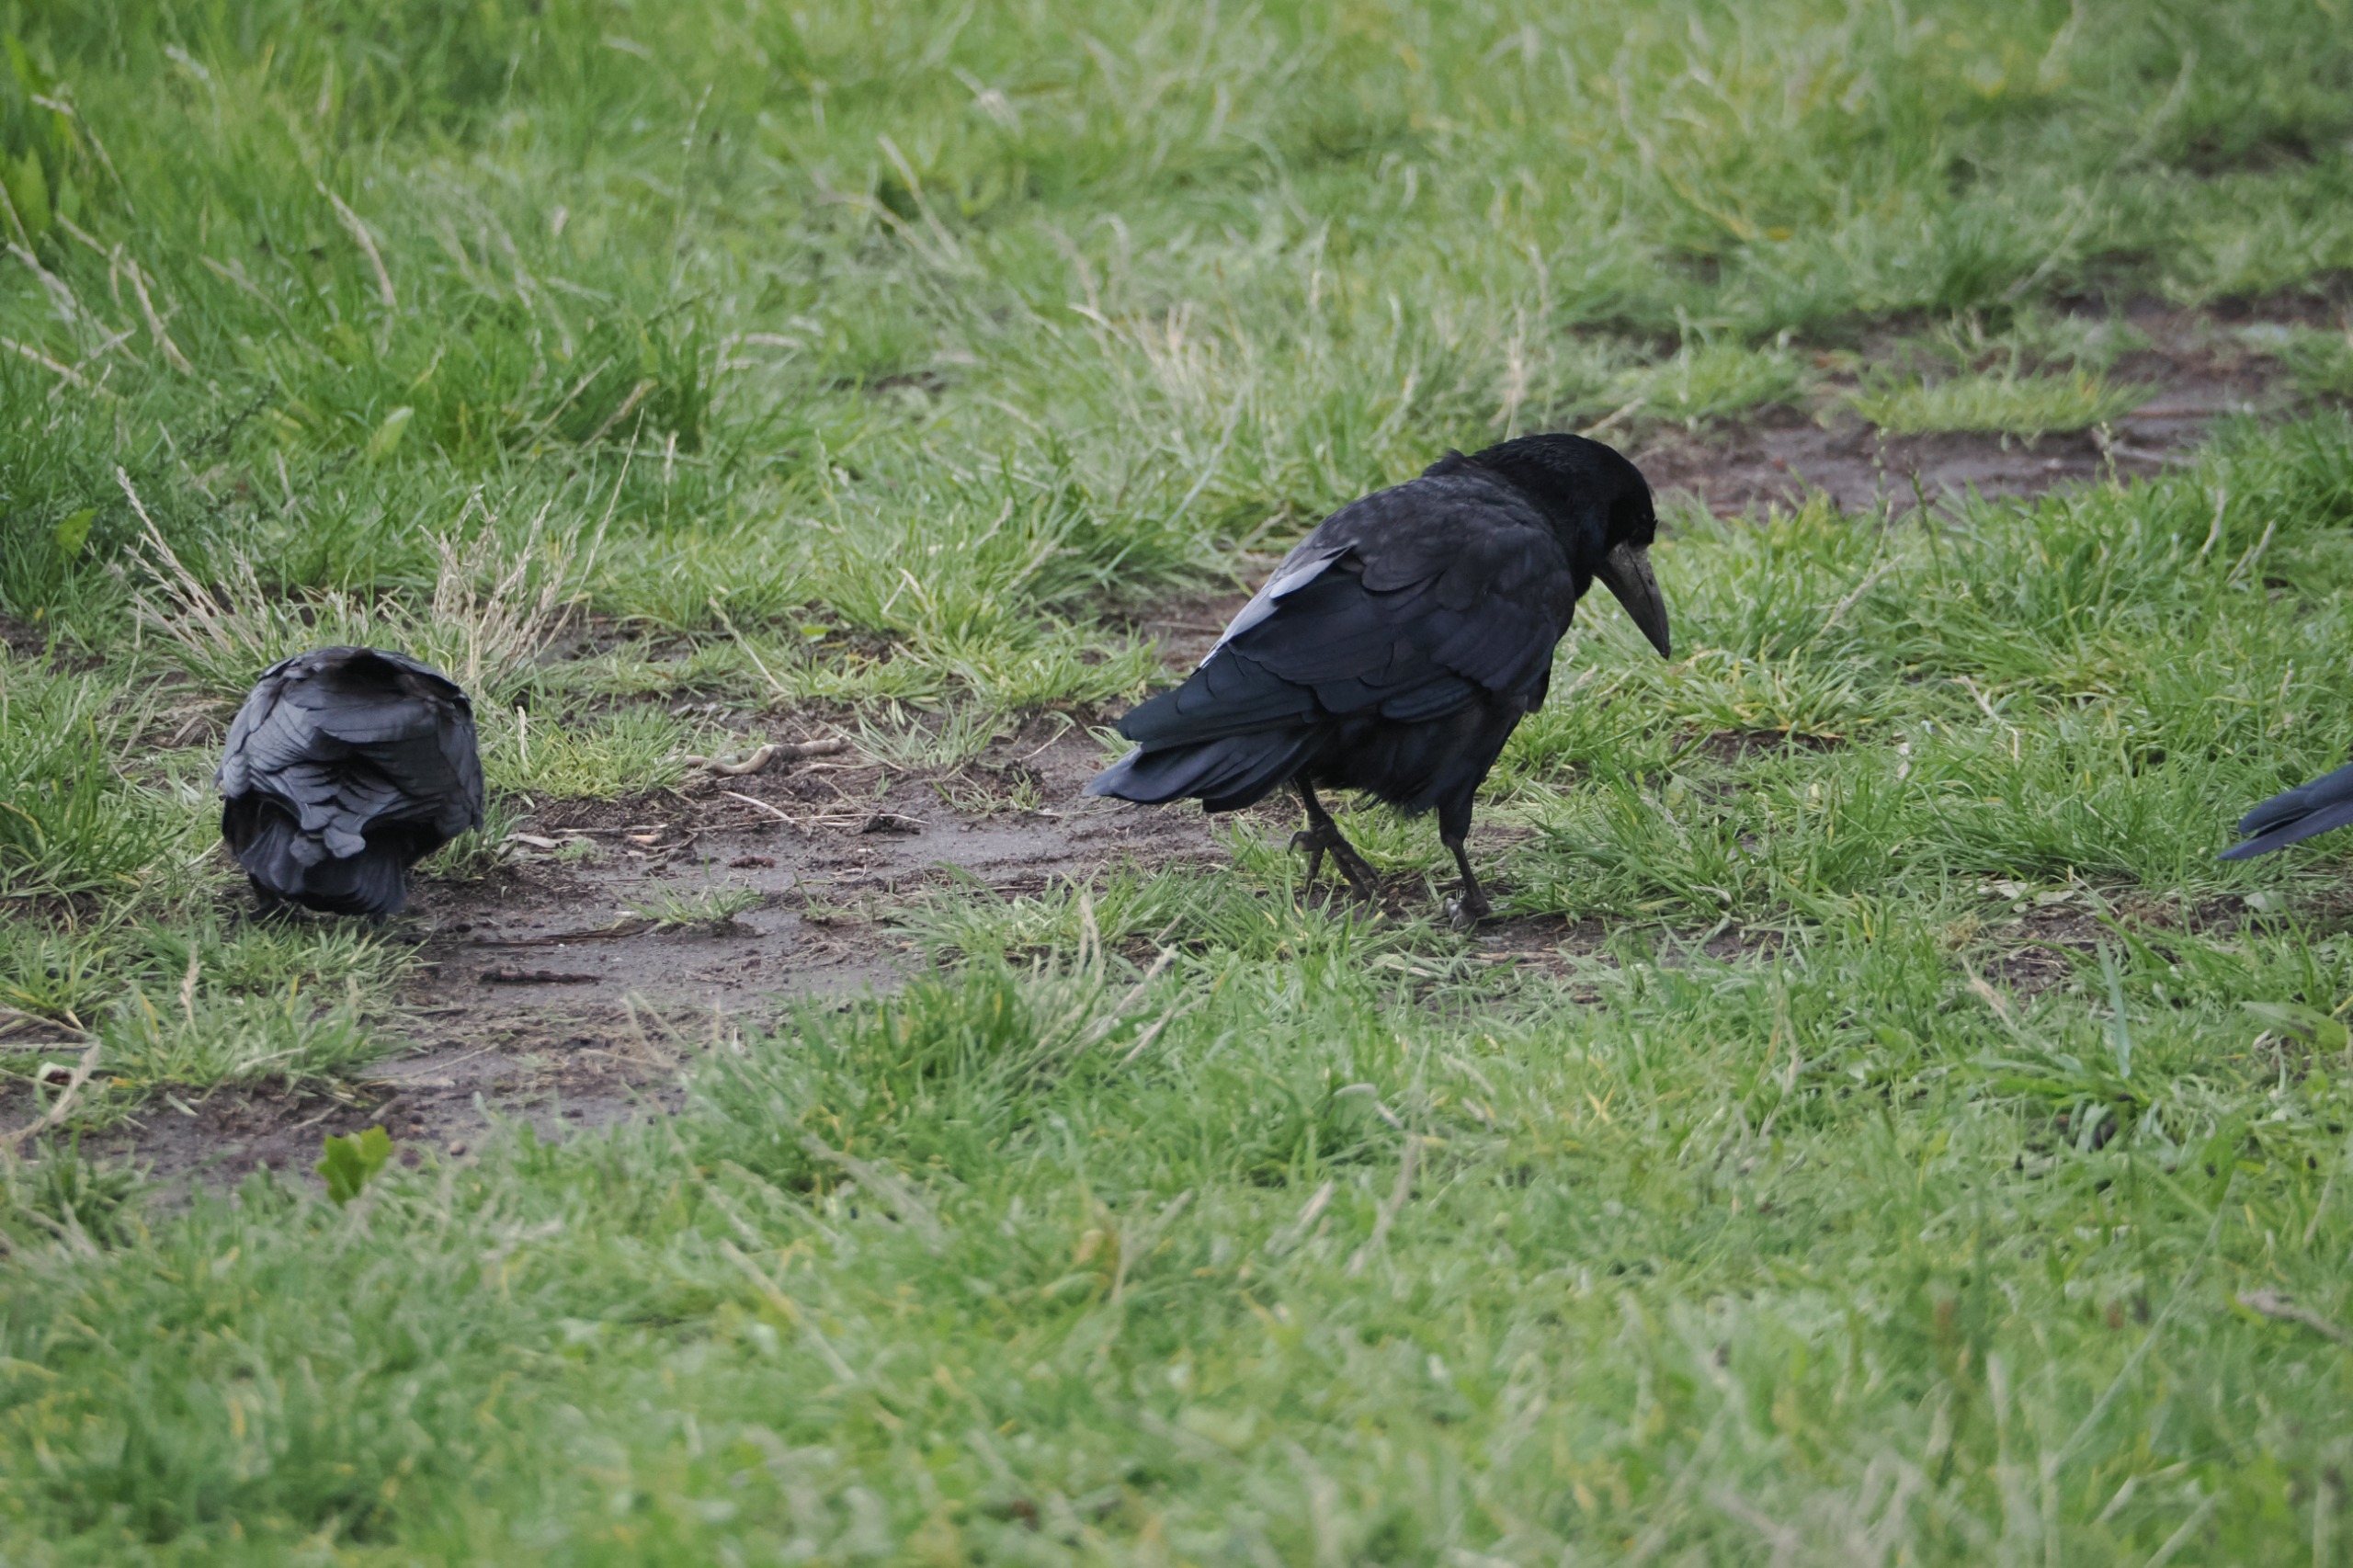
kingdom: Animalia
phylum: Chordata
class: Aves
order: Passeriformes
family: Corvidae
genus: Corvus
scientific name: Corvus frugilegus
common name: Råge
